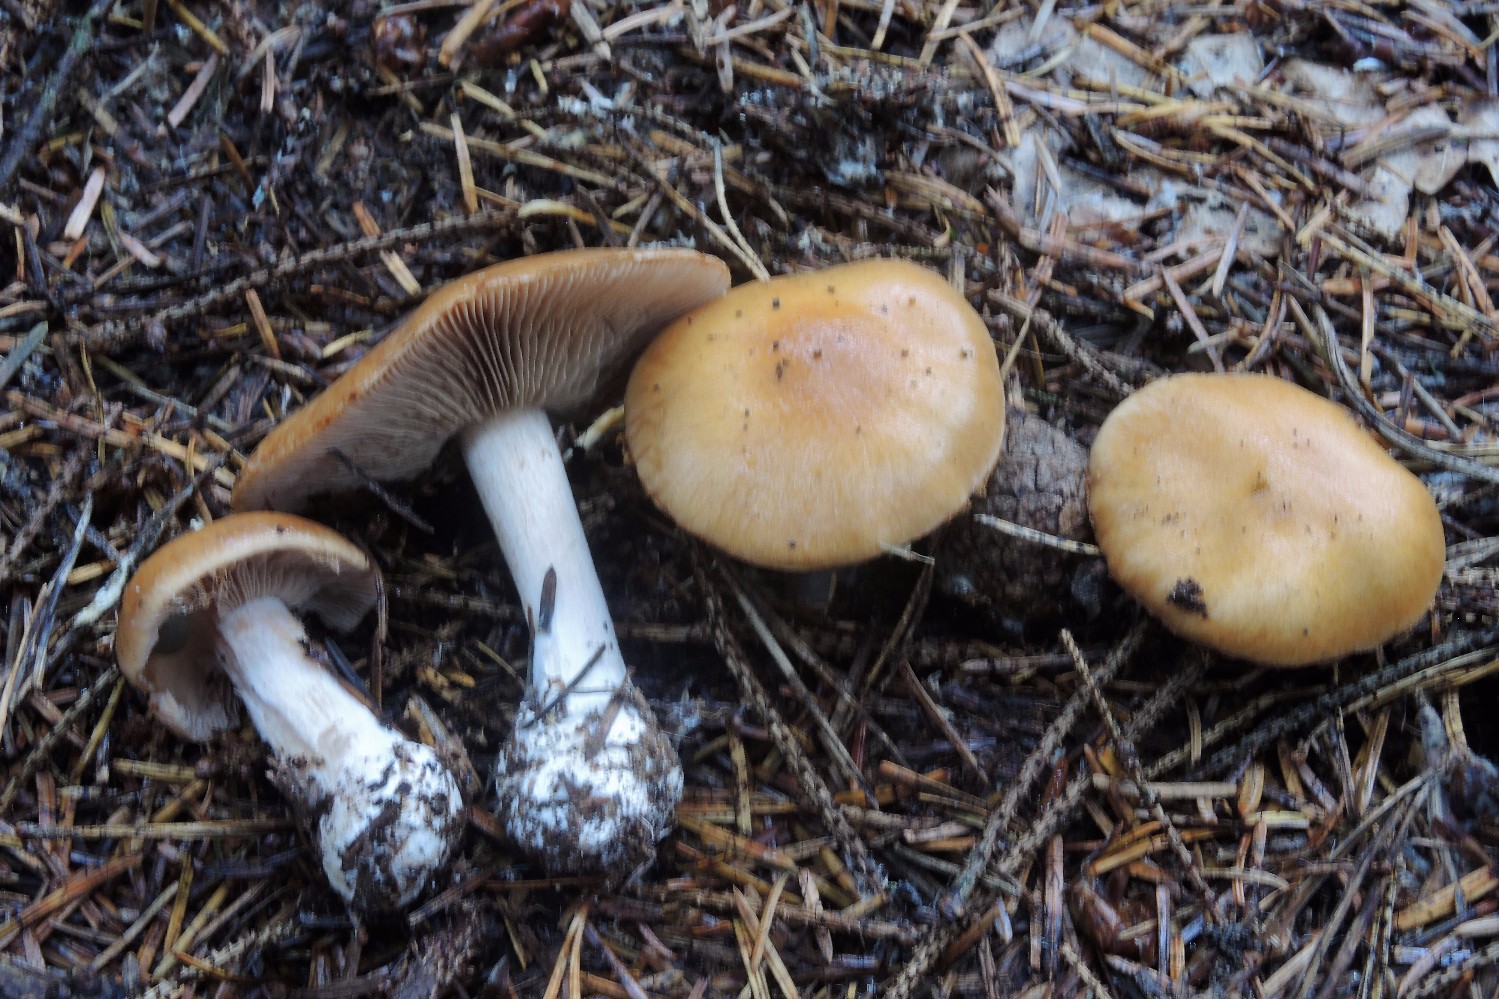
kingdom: Fungi
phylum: Basidiomycota
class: Agaricomycetes
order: Agaricales
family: Cortinariaceae
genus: Thaxterogaster
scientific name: Thaxterogaster multiformis
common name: honning-slørhat
